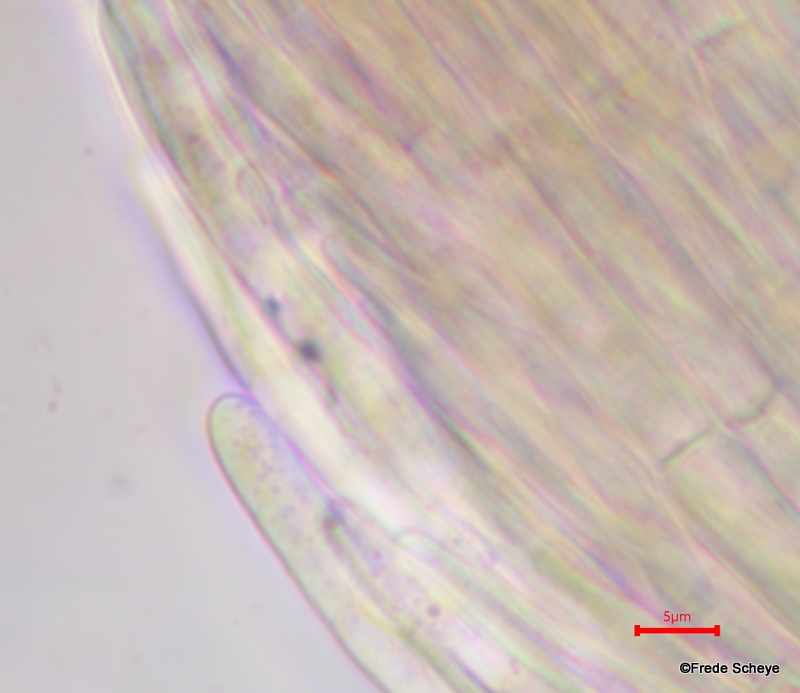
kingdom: Fungi
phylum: Ascomycota
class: Pezizomycetes
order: Pezizales
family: Sarcoscyphaceae
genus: Sarcoscypha
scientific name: Sarcoscypha
